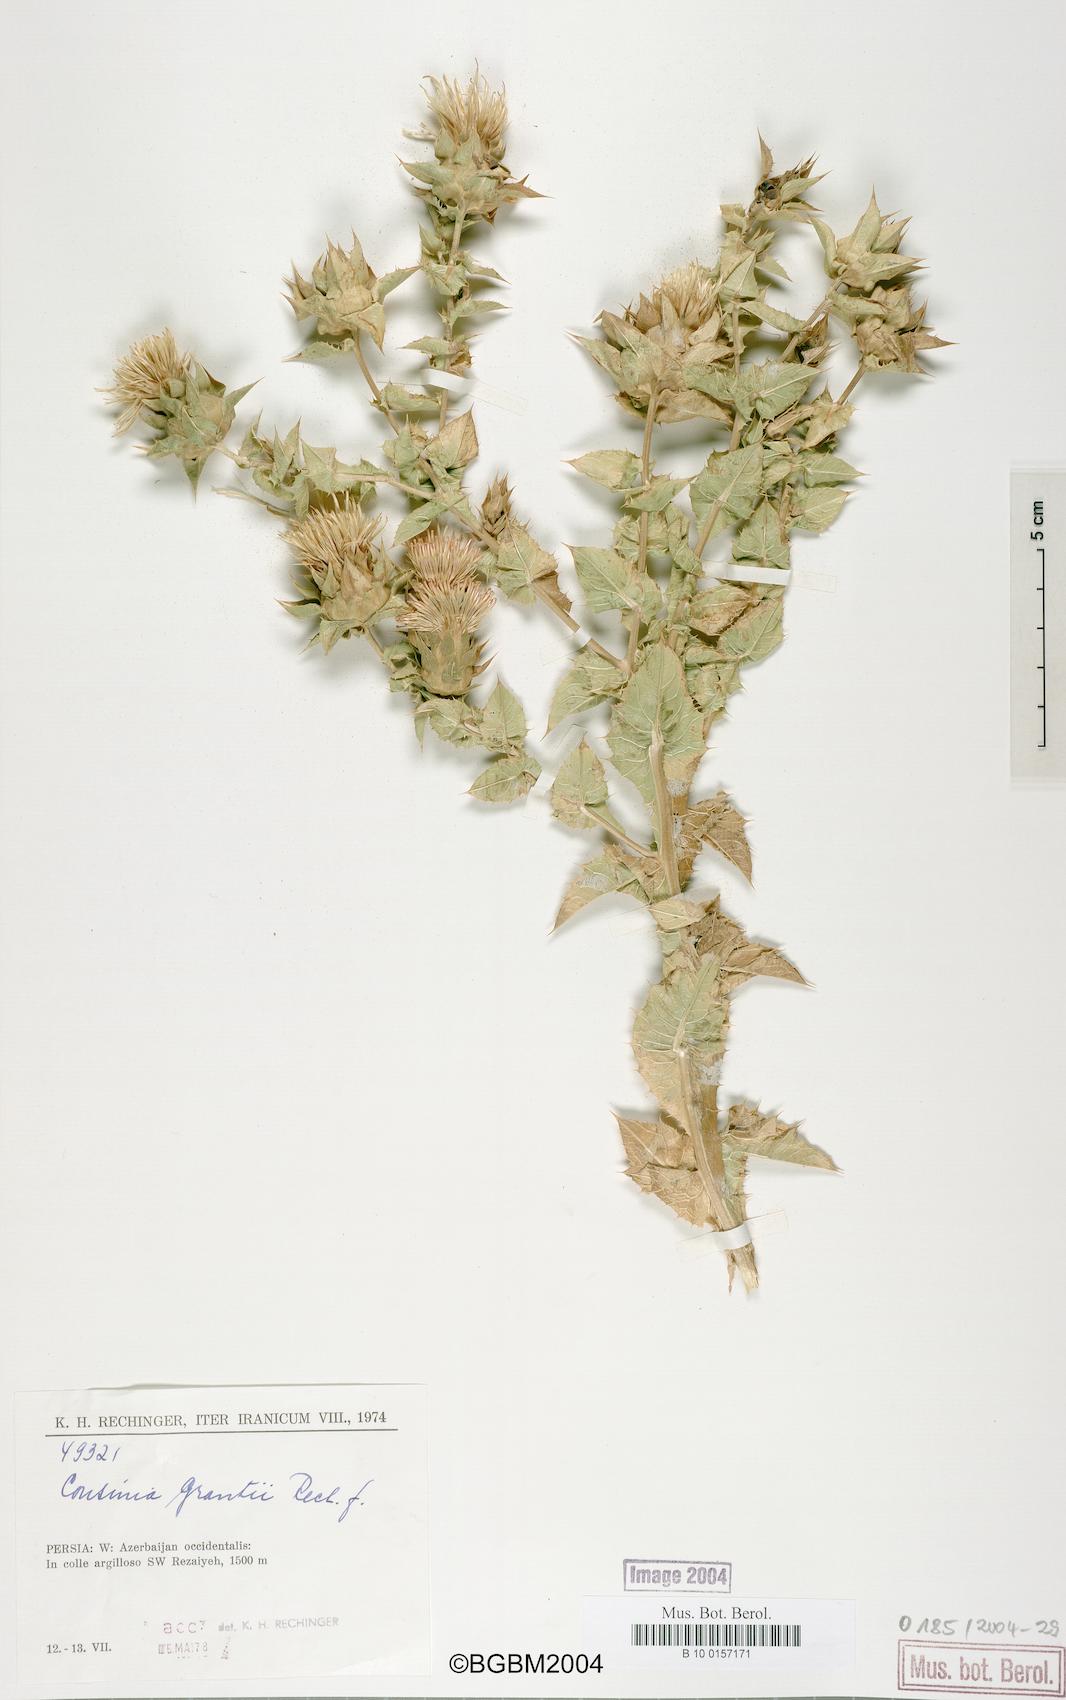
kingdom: Plantae
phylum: Tracheophyta
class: Magnoliopsida
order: Asterales
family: Asteraceae
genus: Cousinia
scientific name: Cousinia grantii
